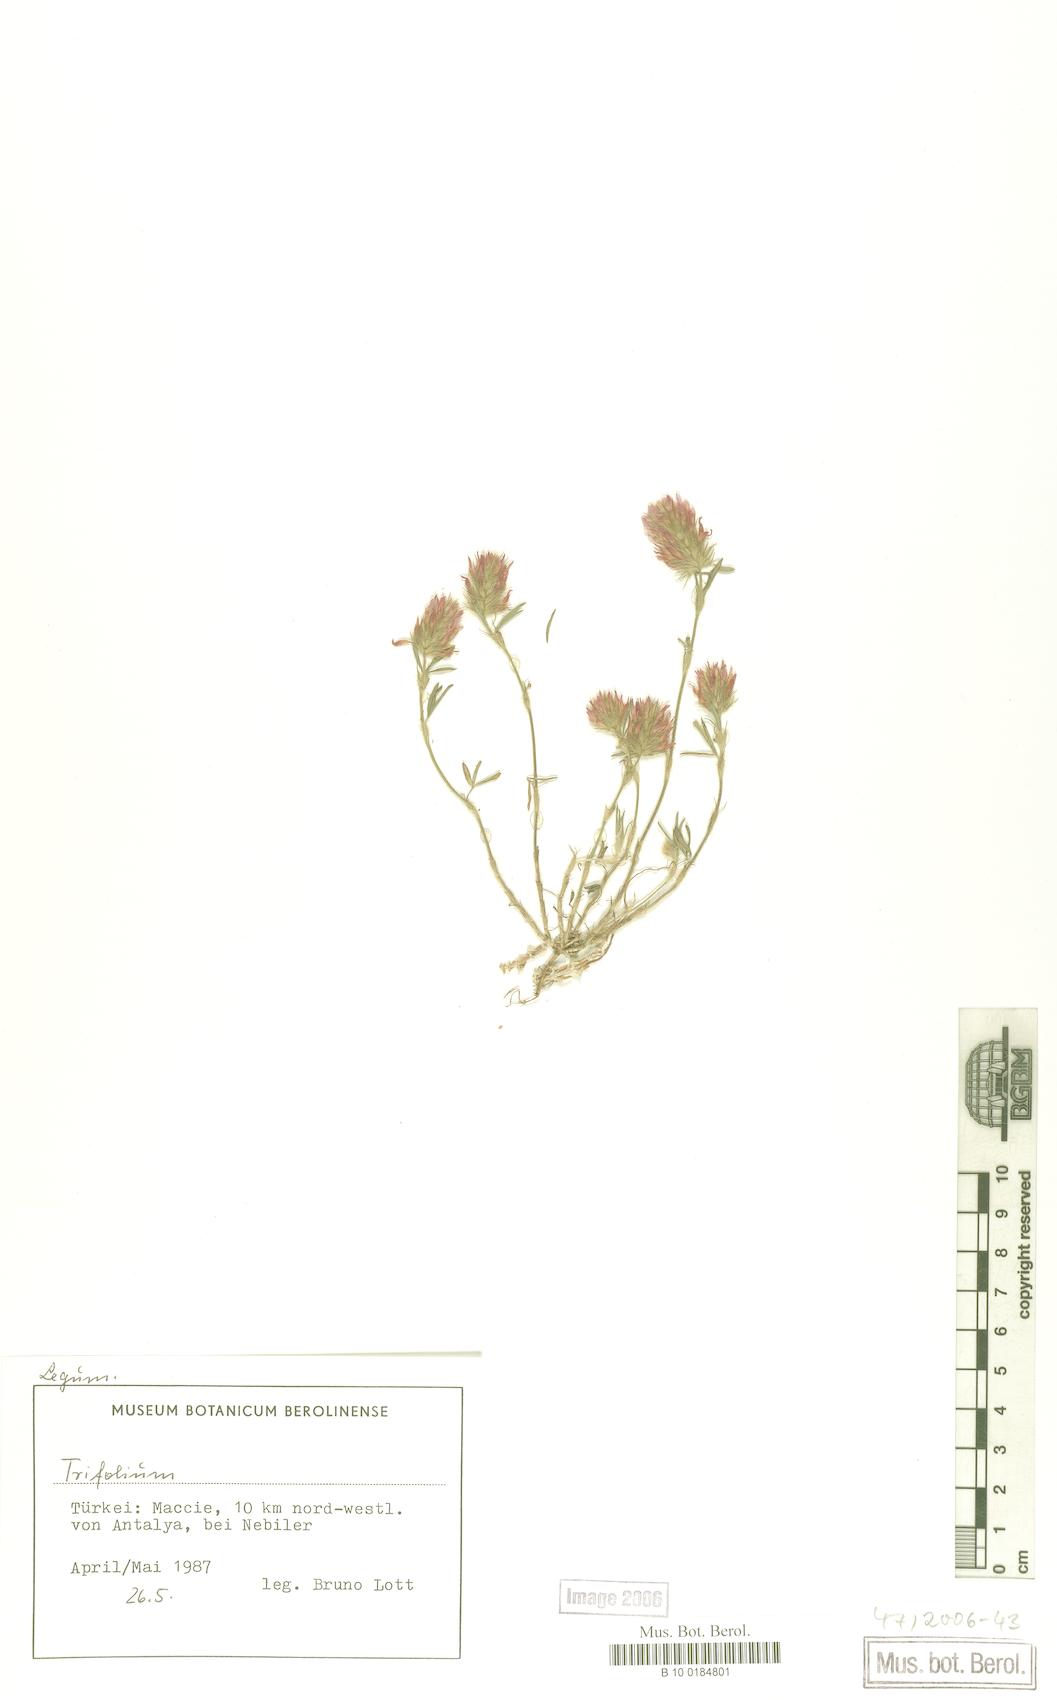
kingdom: Plantae
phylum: Tracheophyta
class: Magnoliopsida
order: Fabales
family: Fabaceae
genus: Trifolium
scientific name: Trifolium
